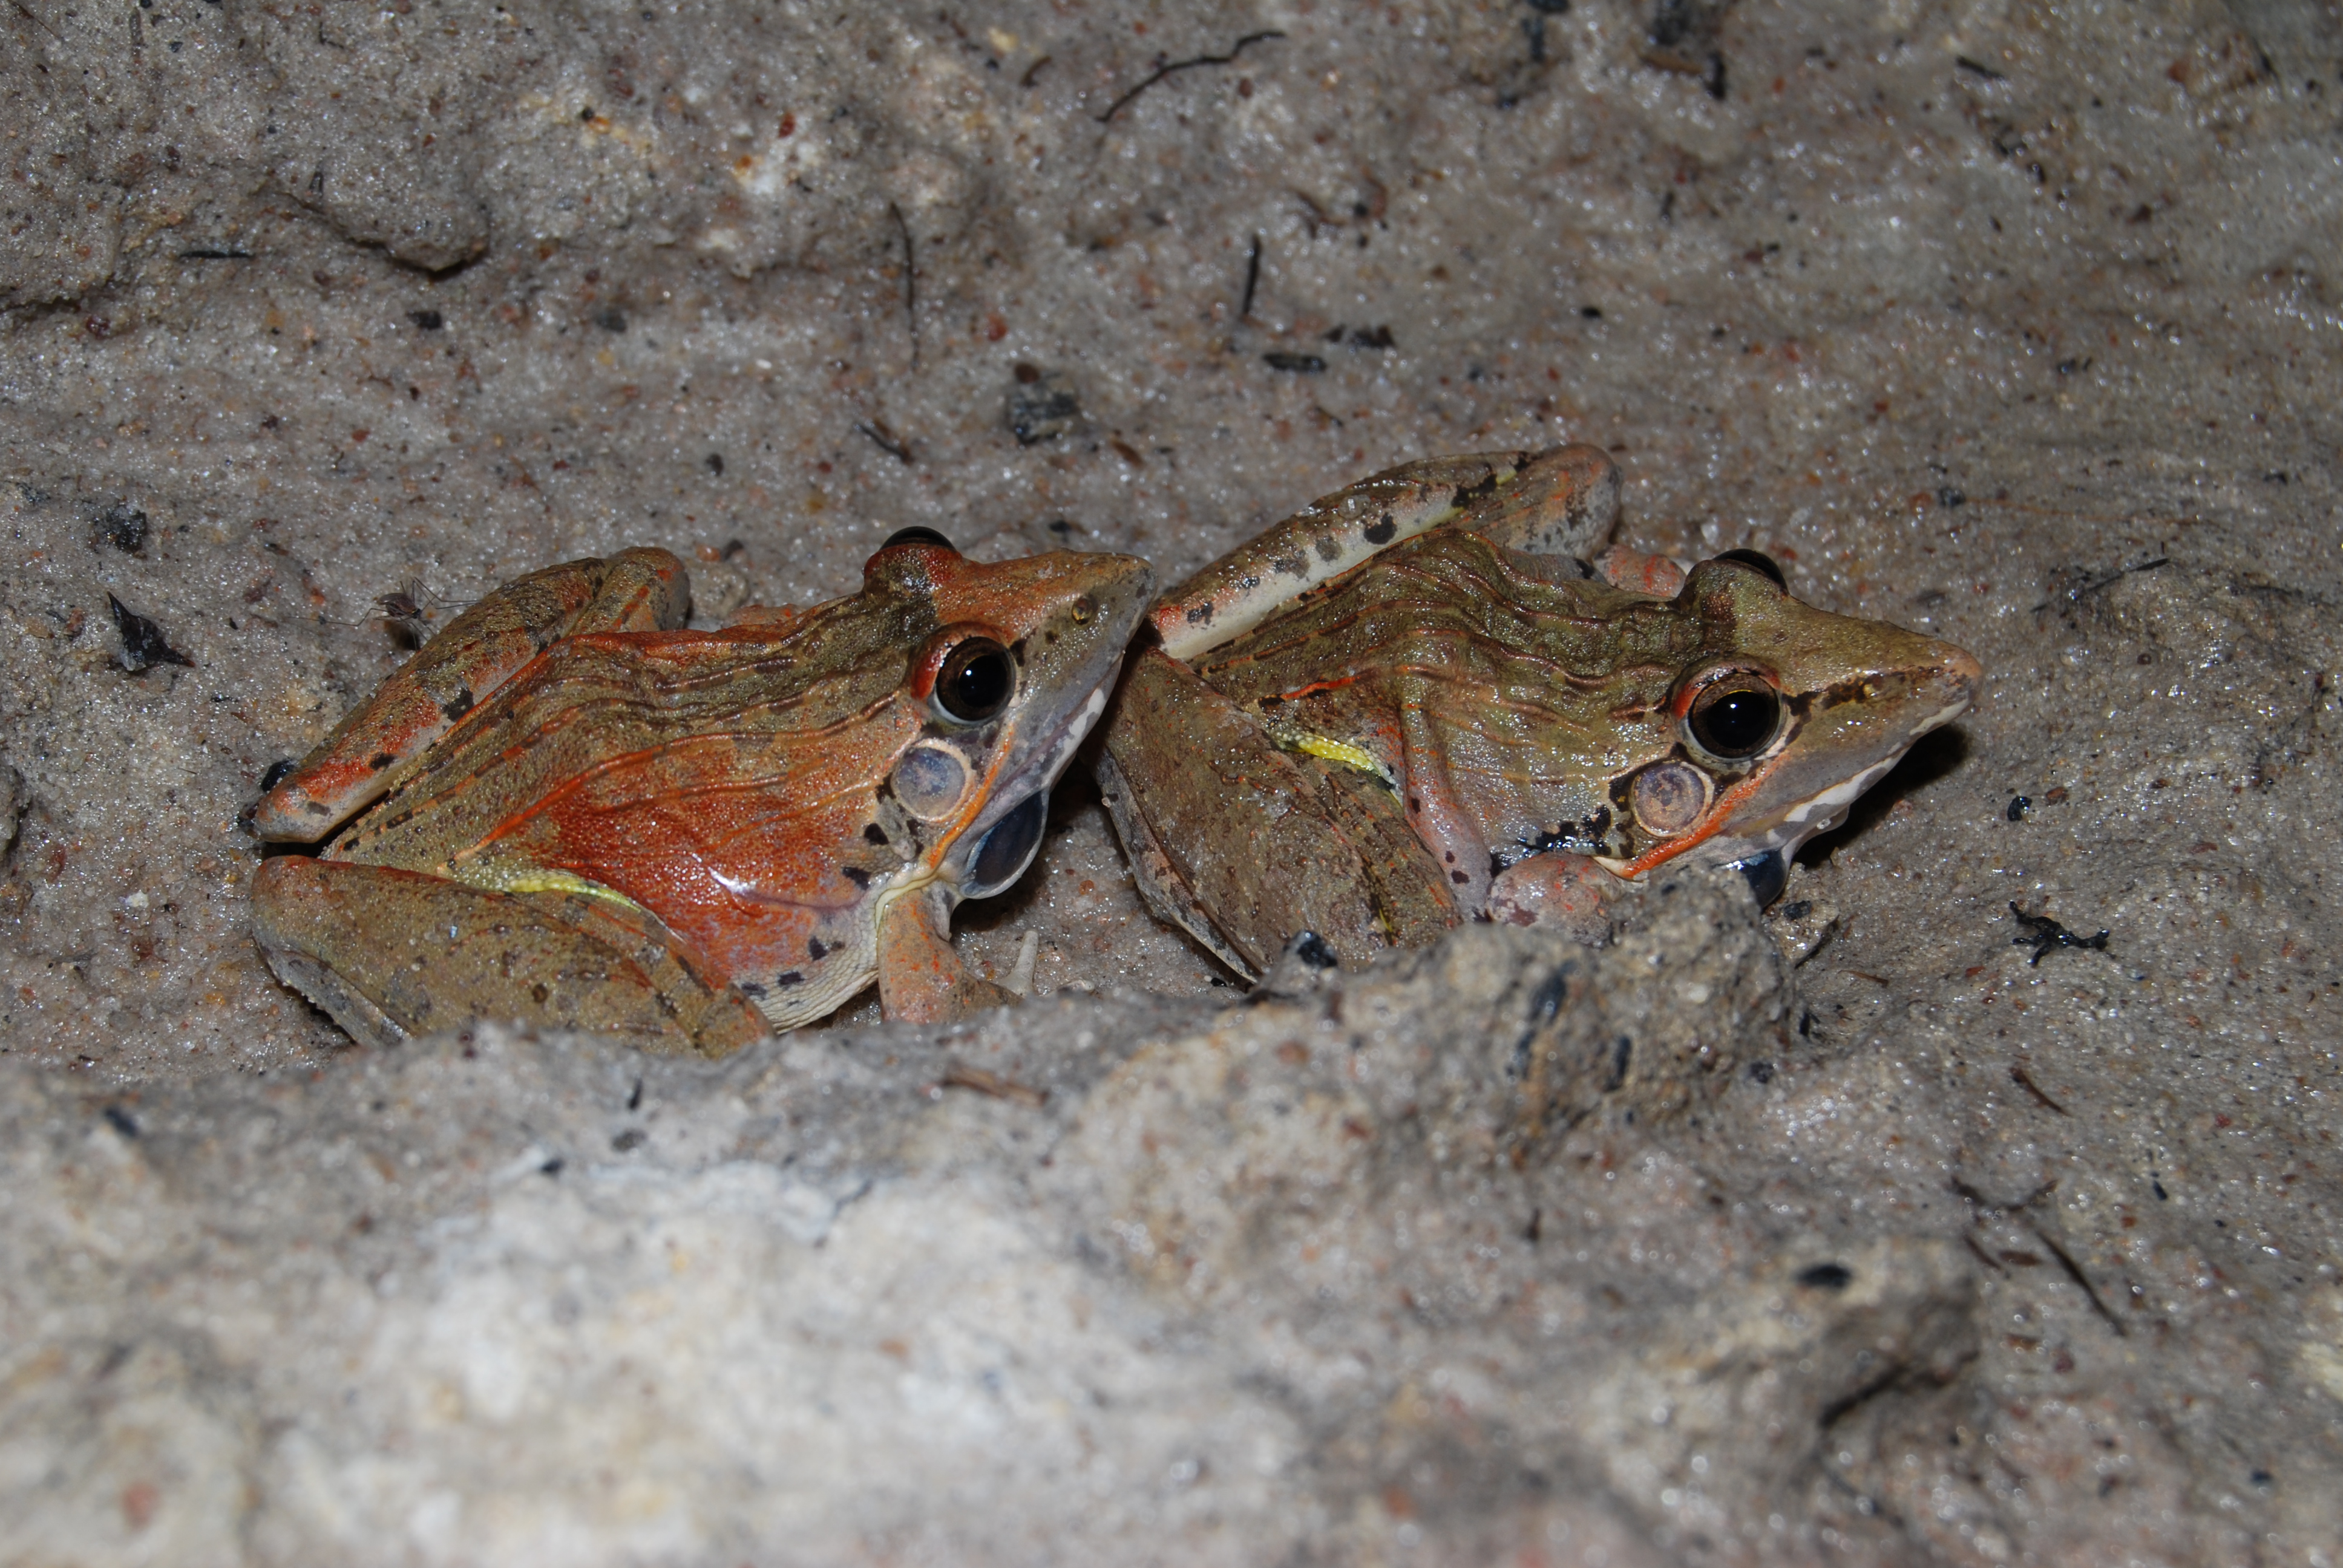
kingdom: Animalia
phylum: Chordata
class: Amphibia
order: Anura
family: Phrynobatrachidae
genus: Phrynobatrachus
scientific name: Phrynobatrachus natalensis
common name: Snoring puddle frog
